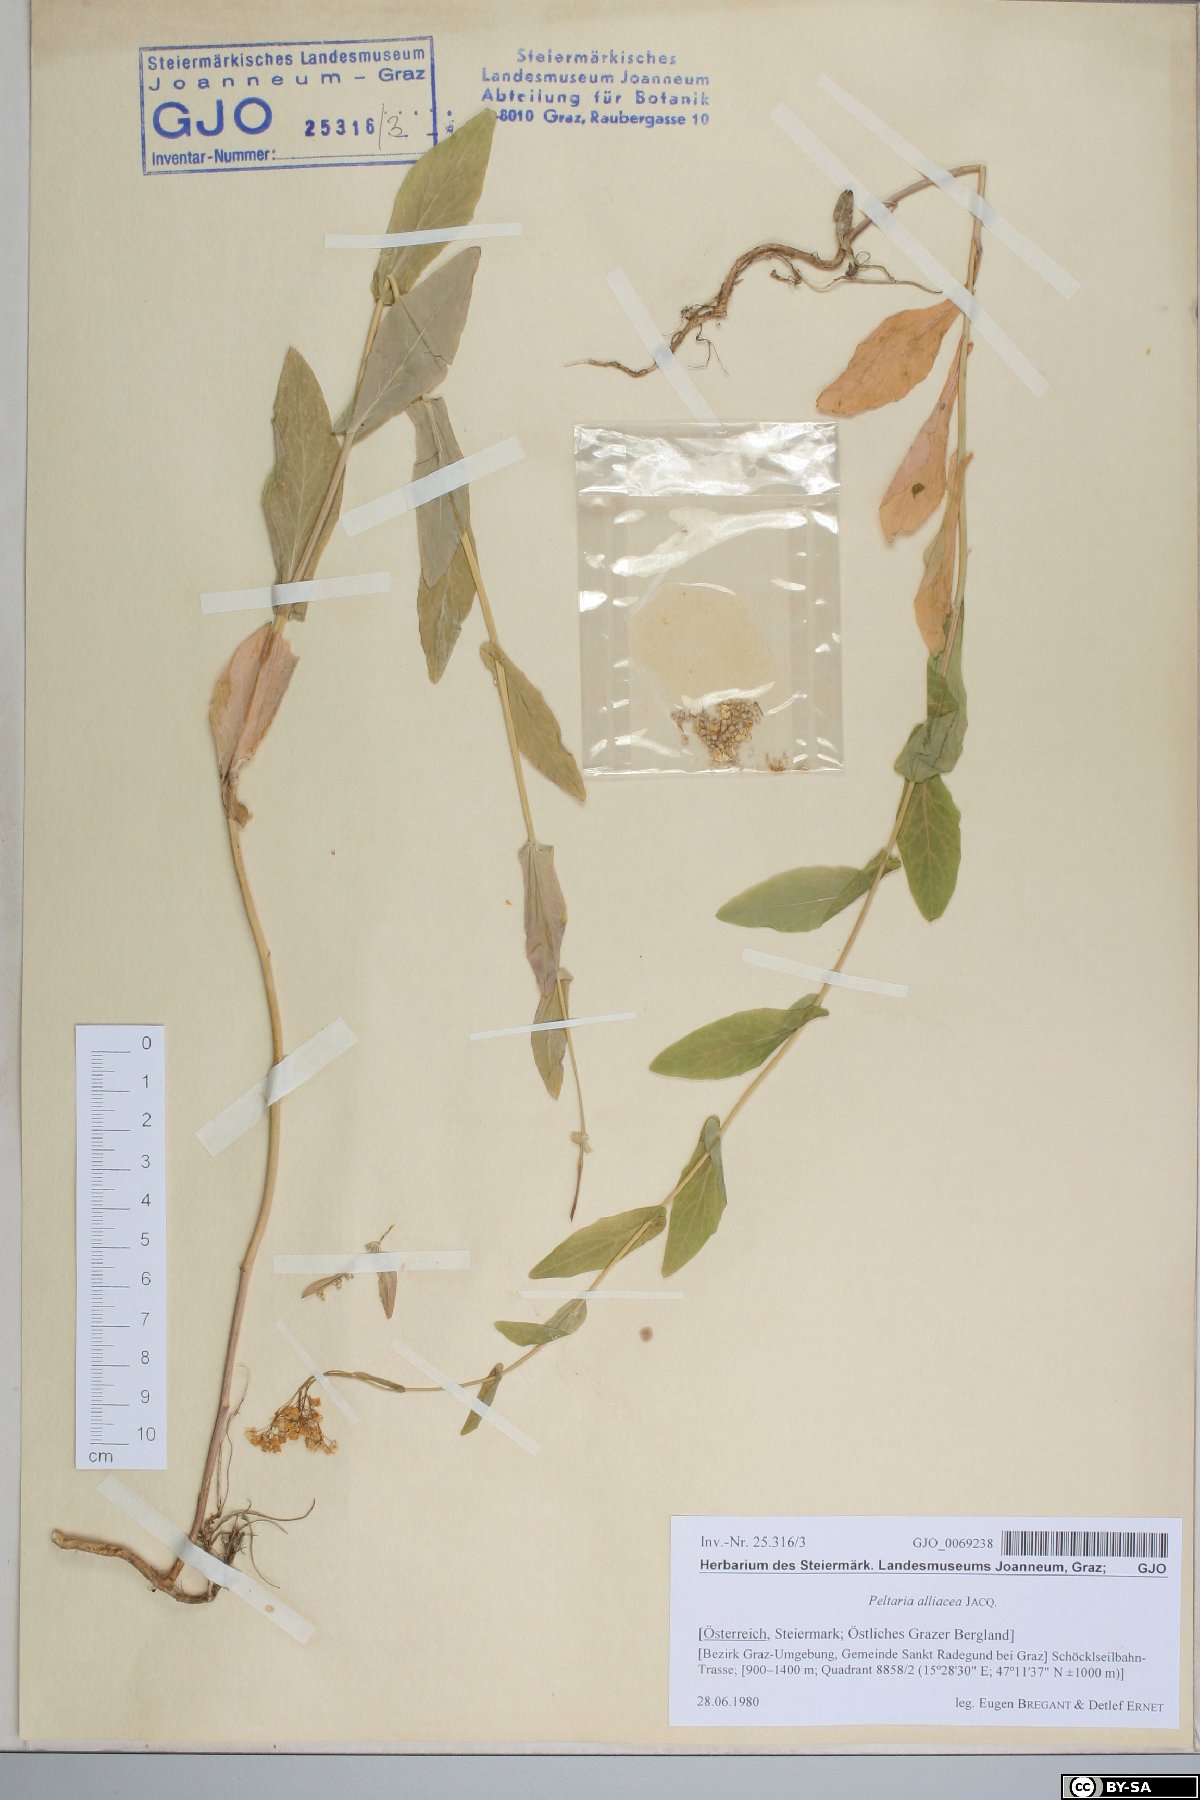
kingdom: Plantae
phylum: Tracheophyta
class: Magnoliopsida
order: Brassicales
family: Brassicaceae
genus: Peltaria
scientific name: Peltaria alliacea
